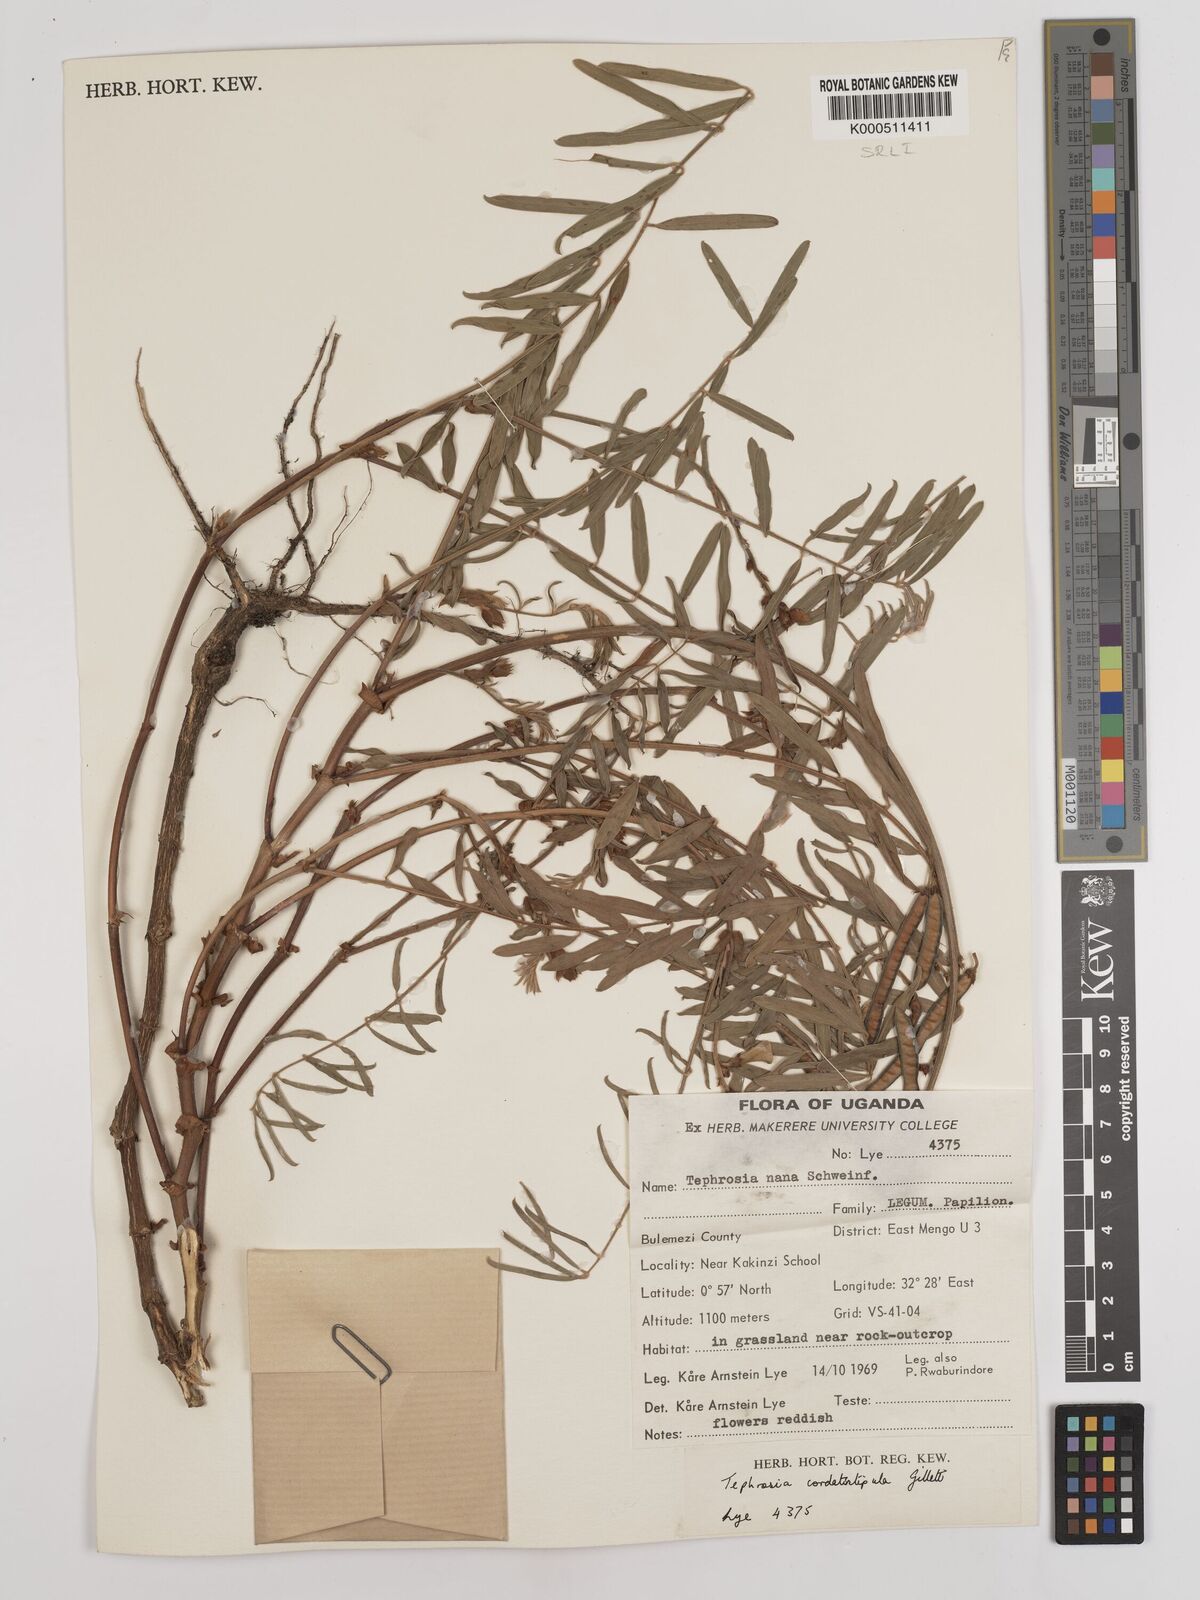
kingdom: Plantae
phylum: Tracheophyta
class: Magnoliopsida
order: Fabales
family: Fabaceae
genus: Tephrosia
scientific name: Tephrosia cordatistipula
